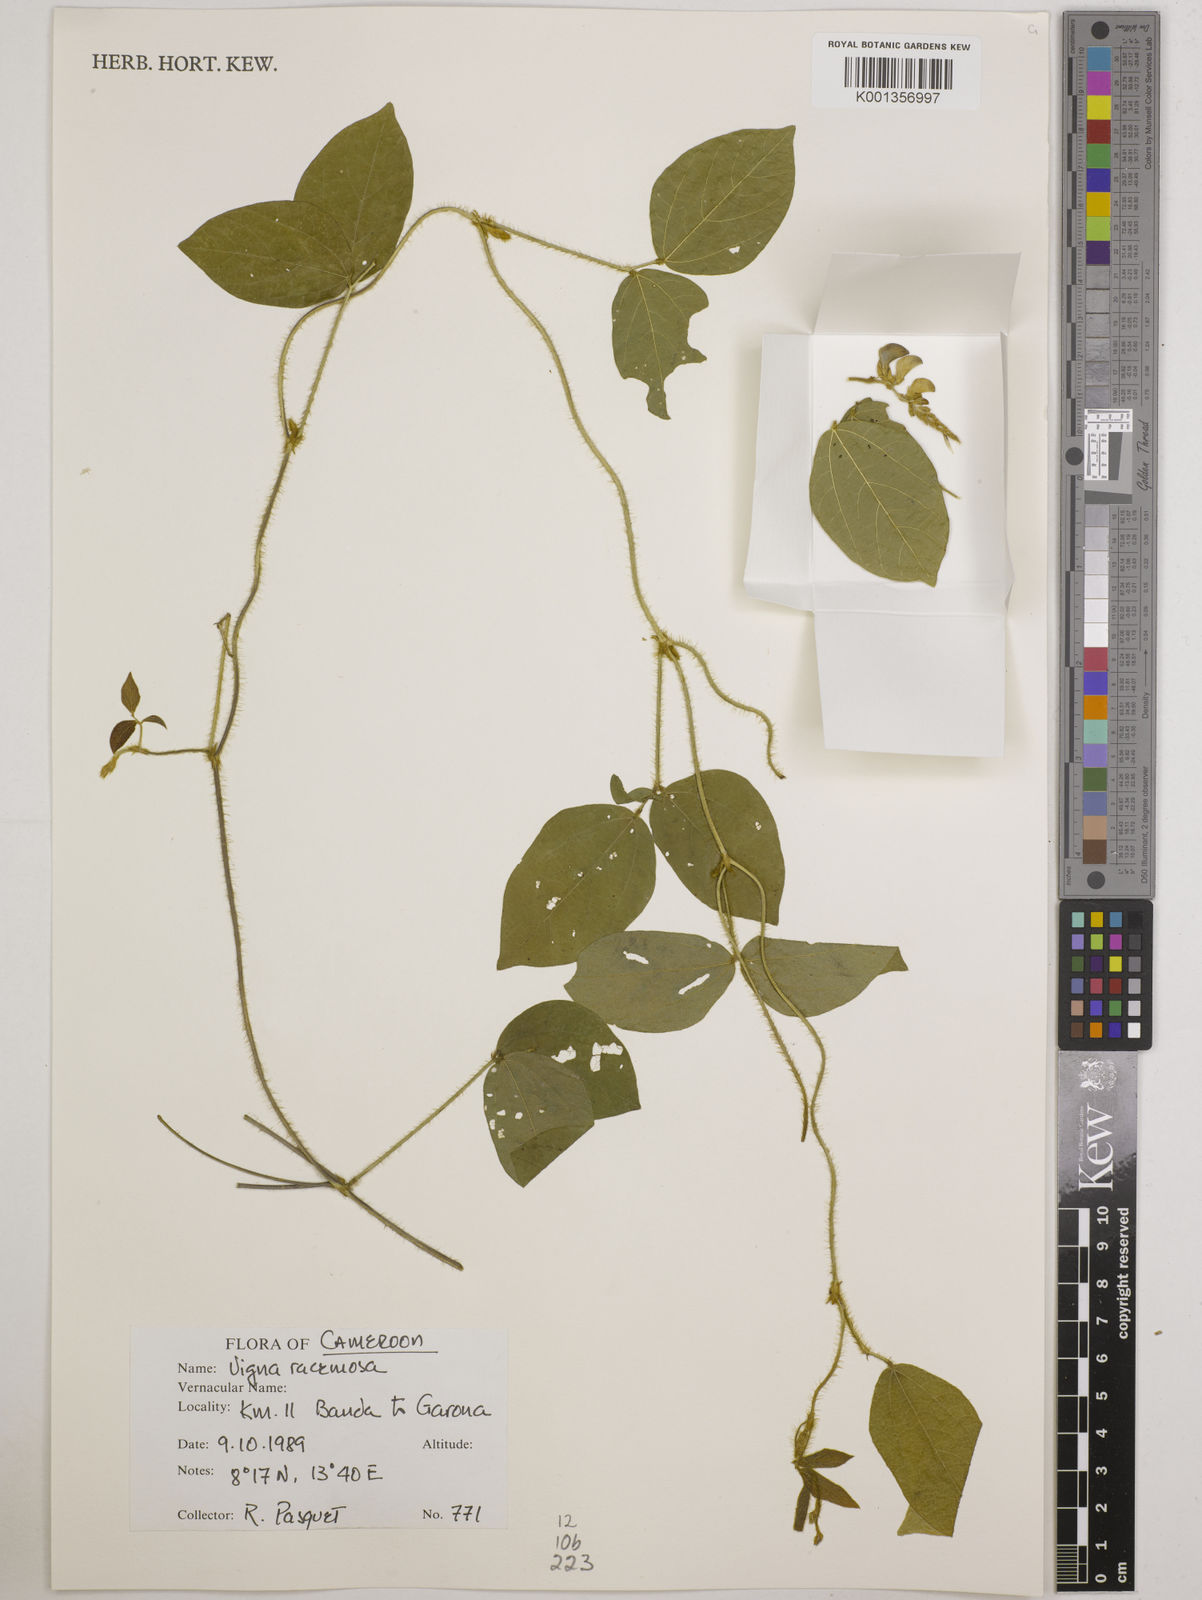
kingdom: Plantae
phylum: Tracheophyta
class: Magnoliopsida
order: Fabales
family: Fabaceae
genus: Vigna
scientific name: Vigna racemosa
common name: Beans not eaten
